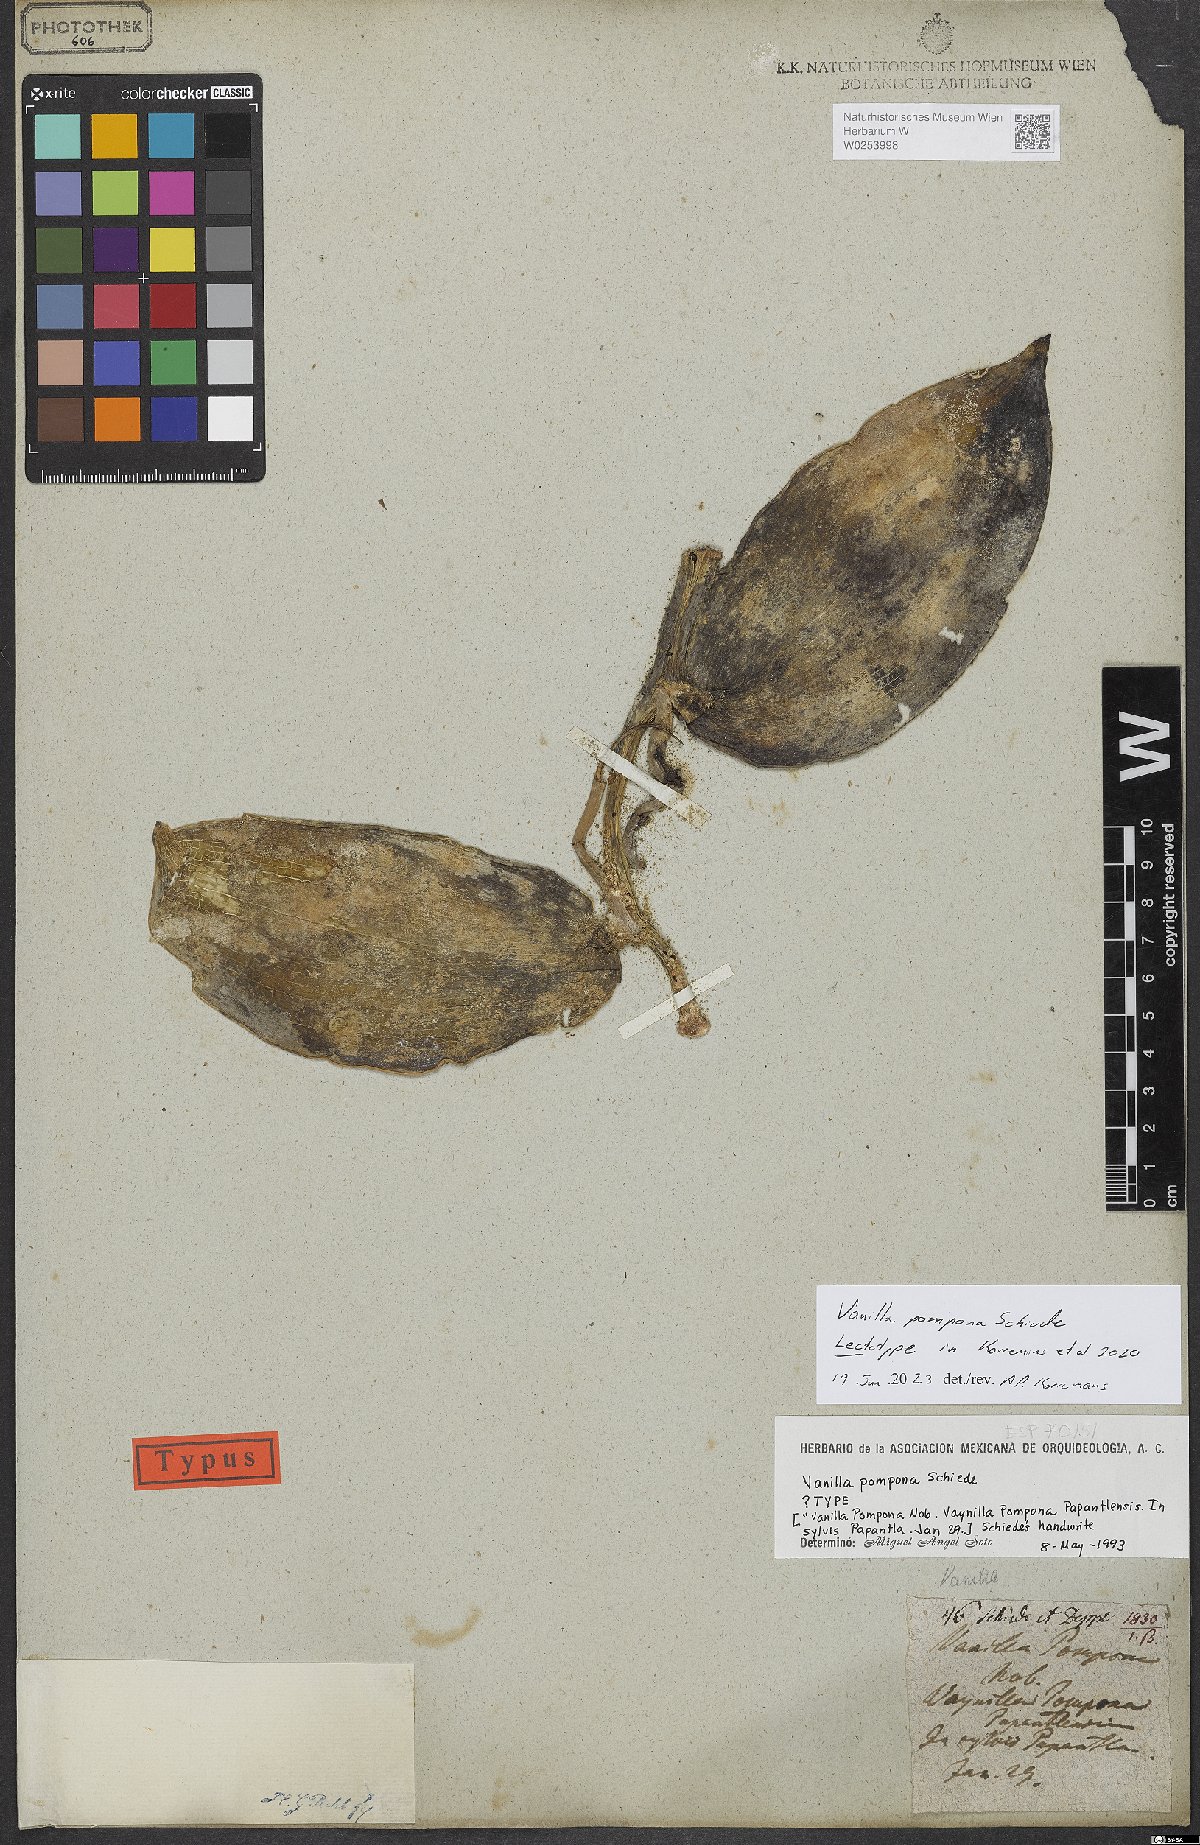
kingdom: Plantae
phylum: Tracheophyta
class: Liliopsida
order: Asparagales
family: Orchidaceae
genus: Vanilla
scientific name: Vanilla pompona
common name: West indian vanilla
